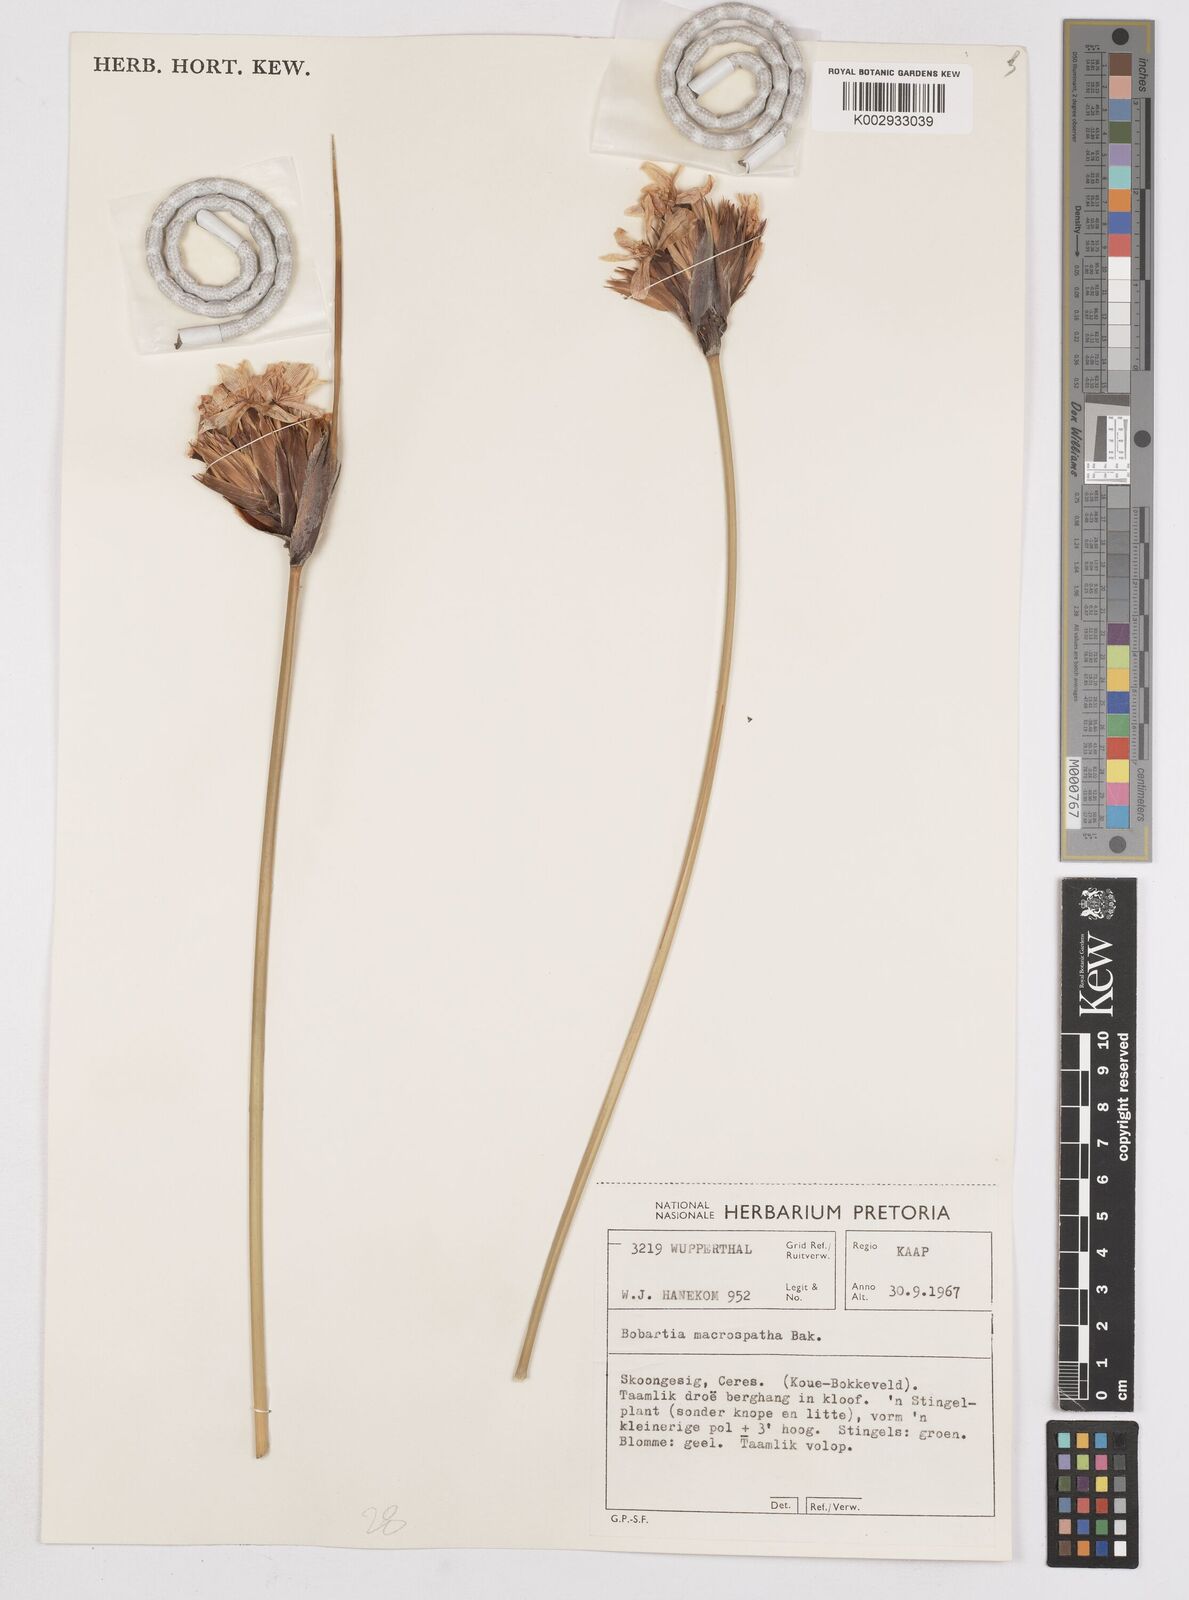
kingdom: Plantae
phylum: Tracheophyta
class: Liliopsida
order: Asparagales
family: Iridaceae
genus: Bobartia
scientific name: Bobartia macrospatha
